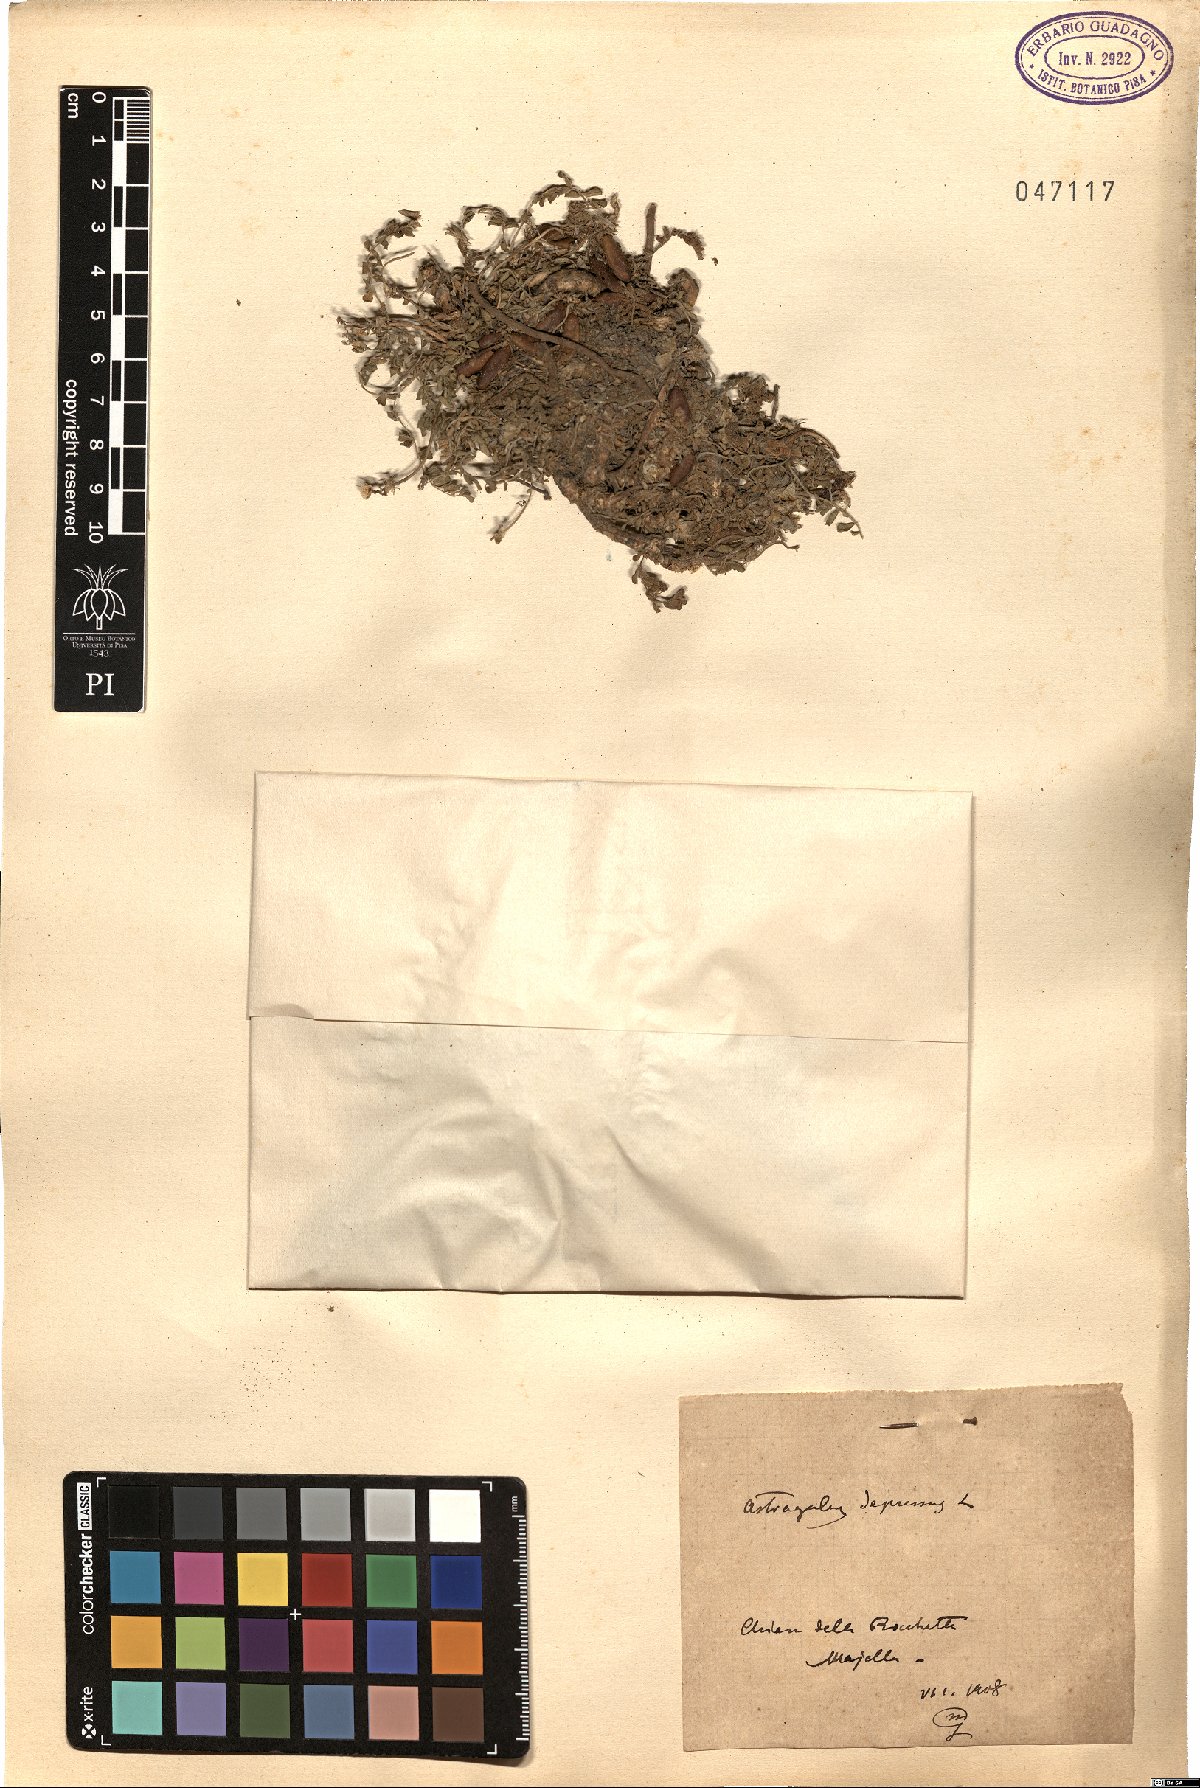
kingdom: Plantae
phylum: Tracheophyta
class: Magnoliopsida
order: Fabales
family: Fabaceae
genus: Astragalus
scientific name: Astragalus depressus
